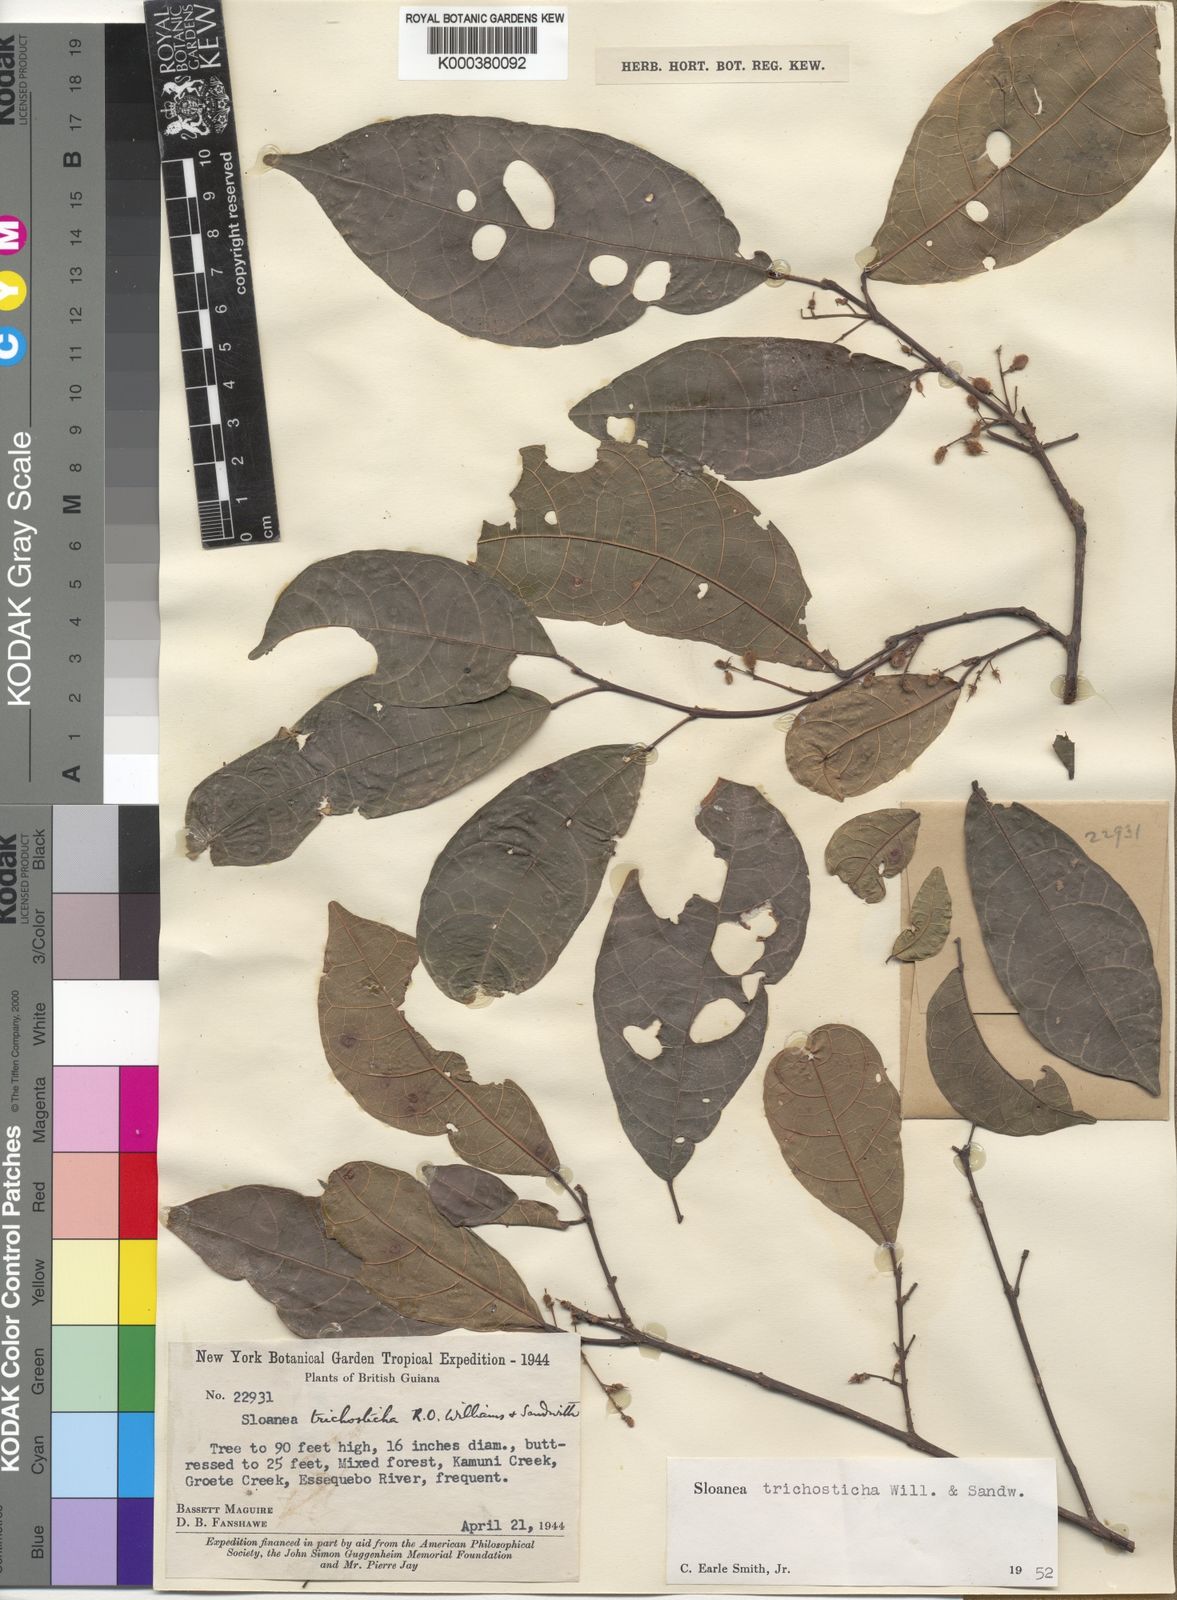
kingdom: Plantae
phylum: Tracheophyta
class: Magnoliopsida
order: Oxalidales
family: Elaeocarpaceae
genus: Sloanea
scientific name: Sloanea trichosticha
